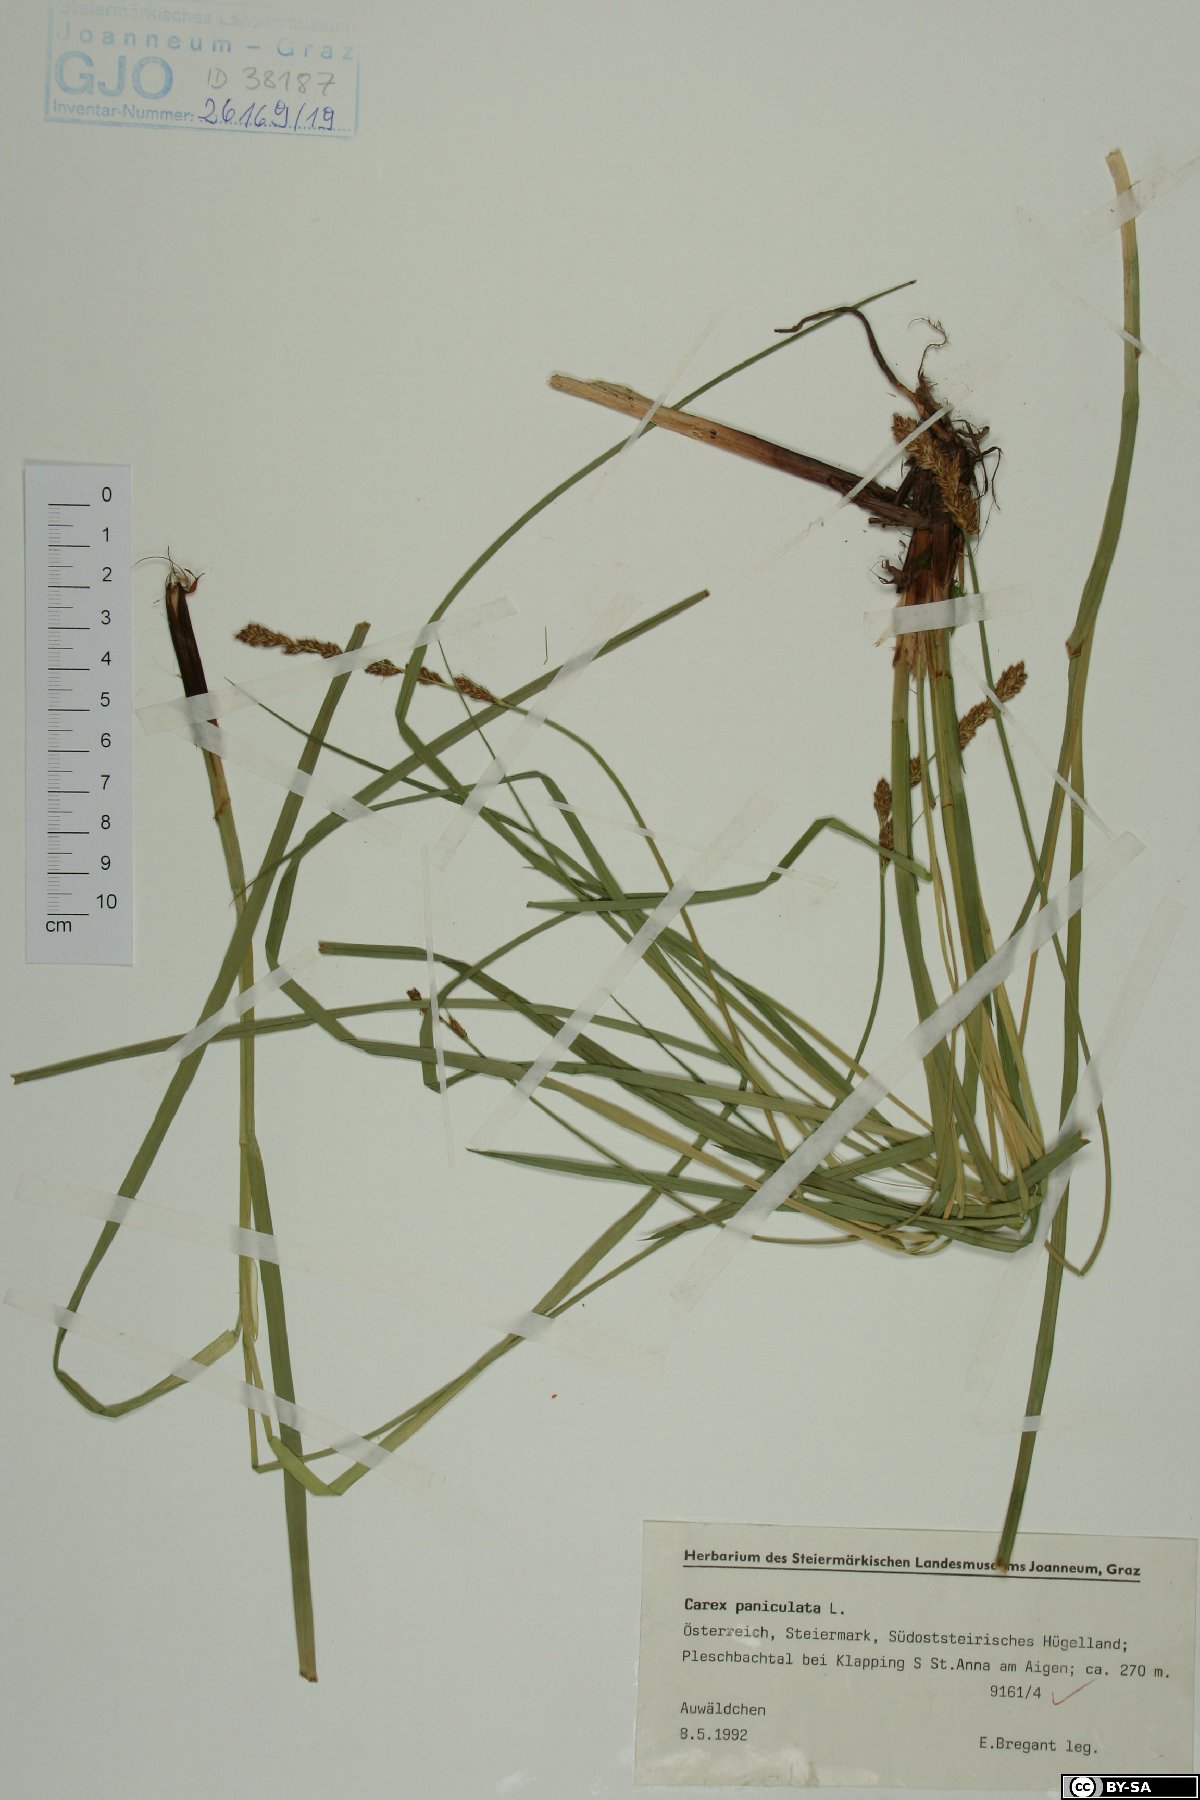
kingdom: Plantae
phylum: Tracheophyta
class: Liliopsida
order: Poales
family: Cyperaceae
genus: Carex
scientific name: Carex paniculata
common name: Greater tussock-sedge
